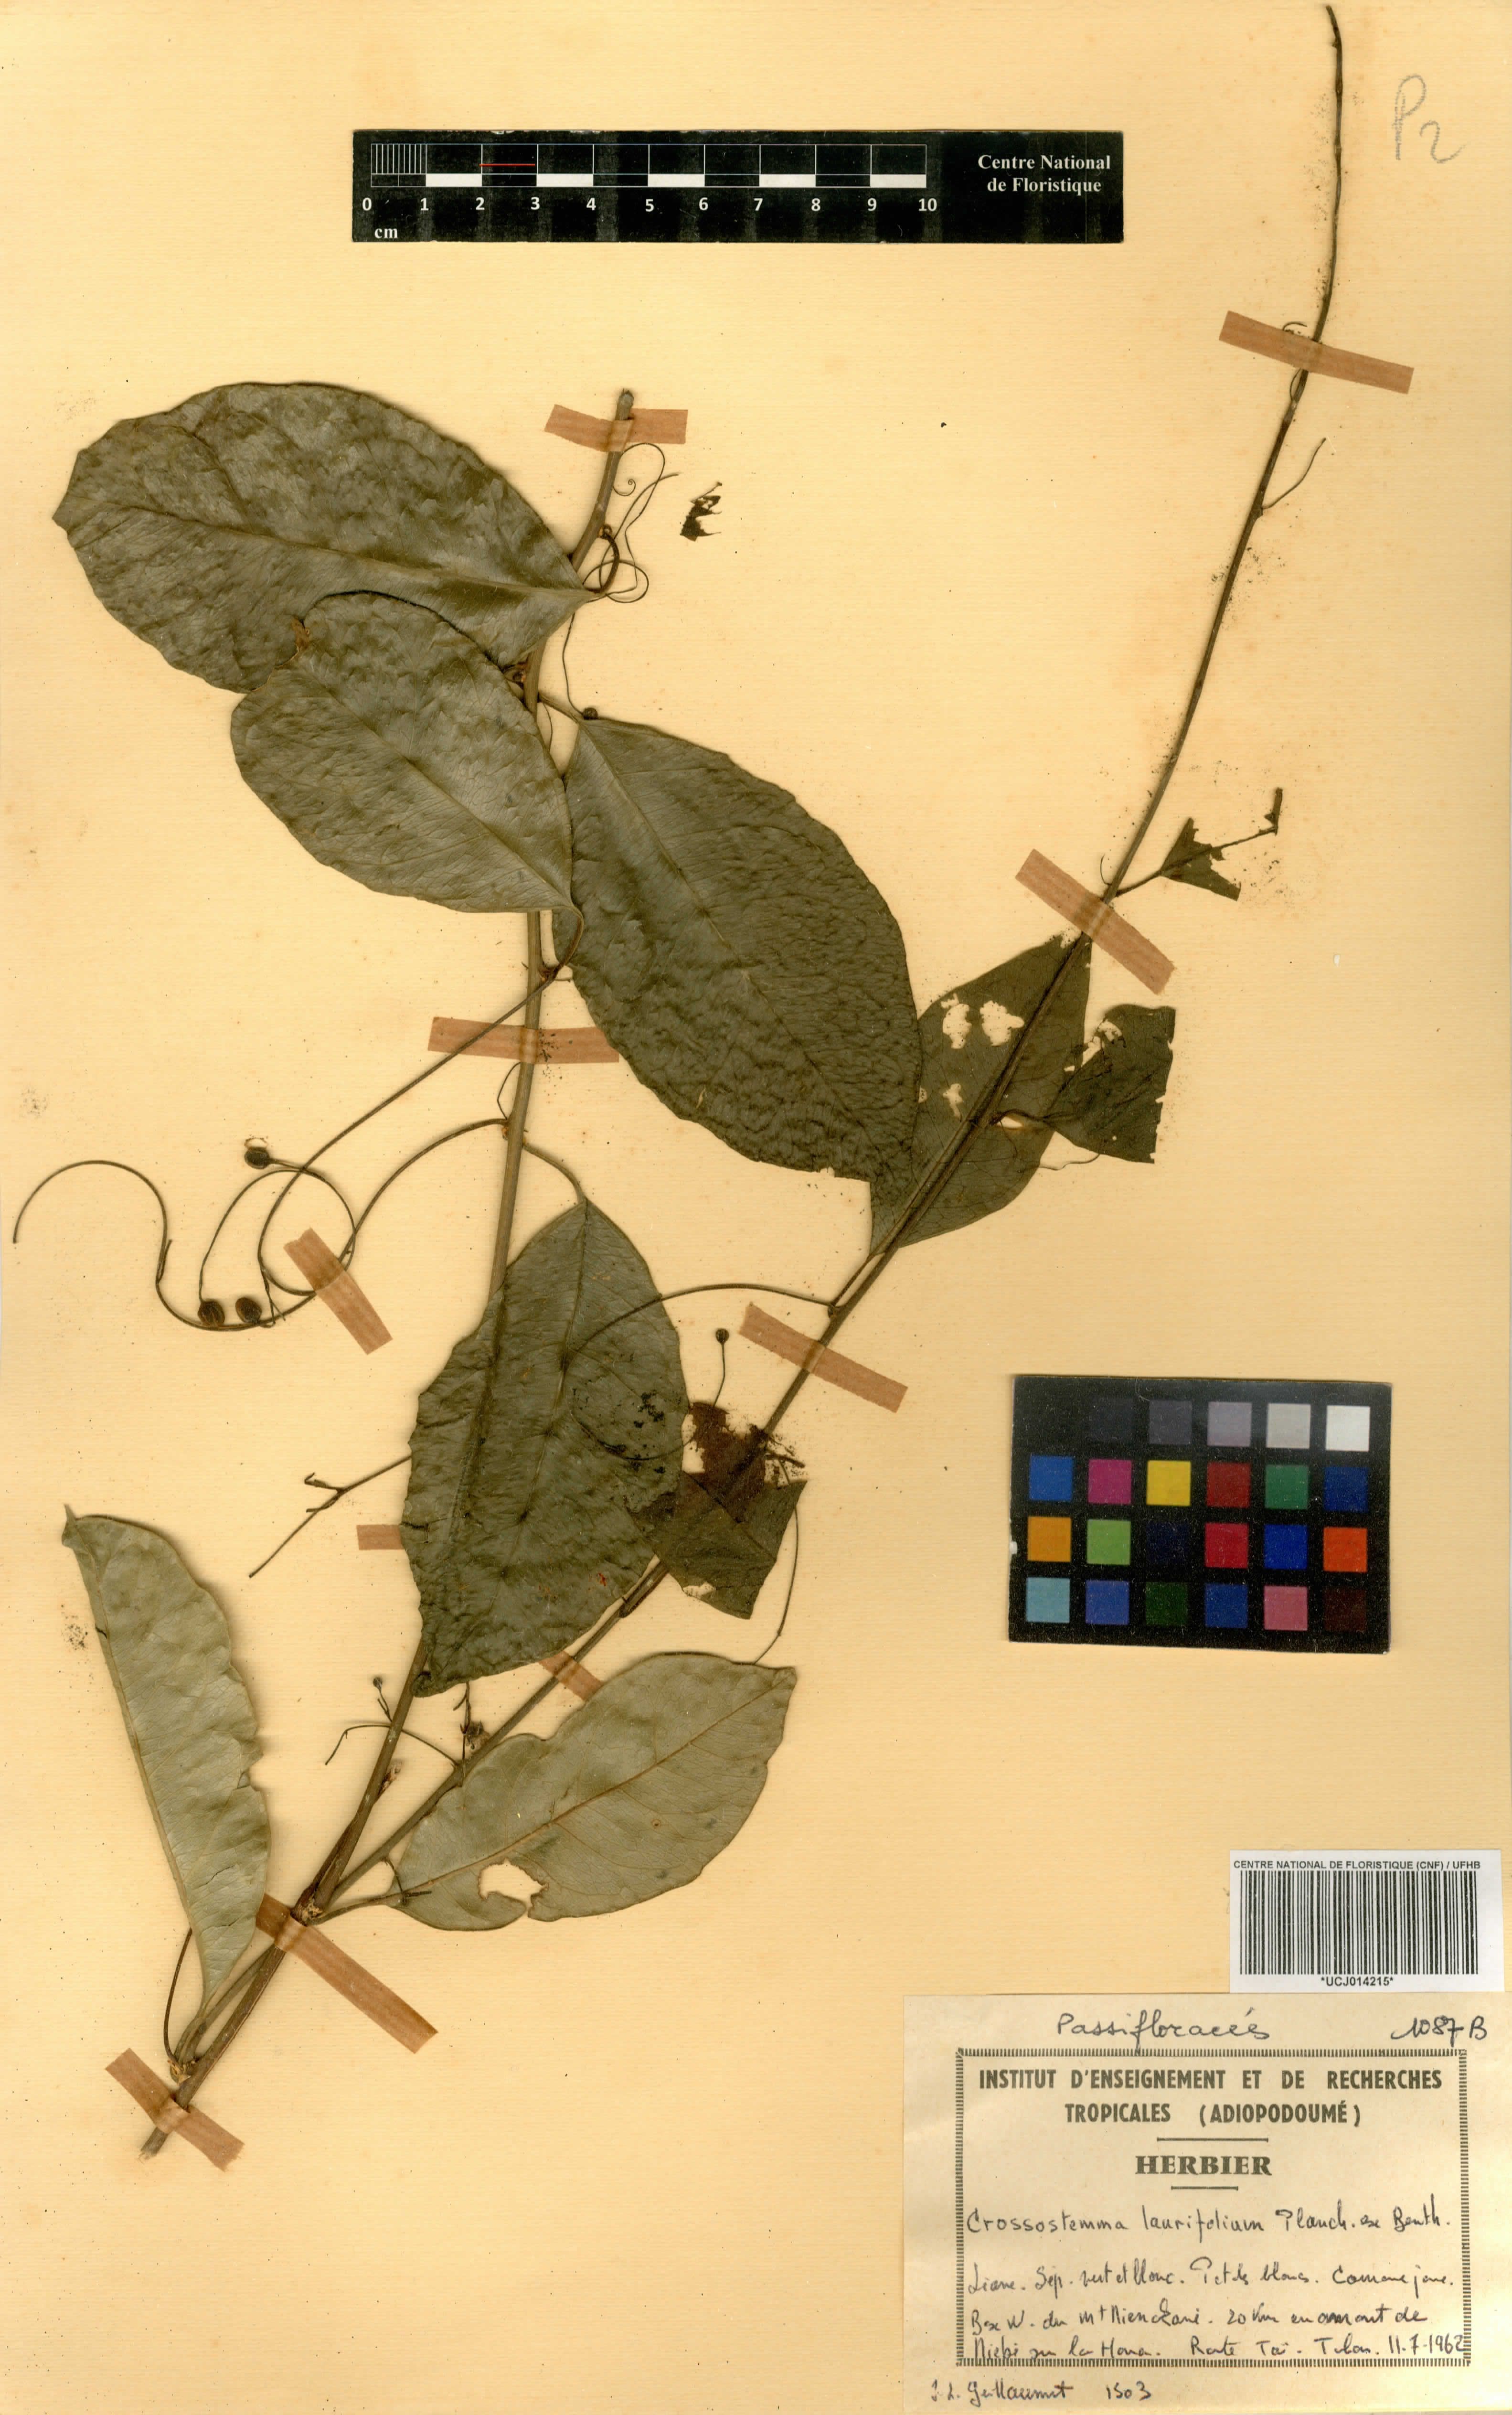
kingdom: Plantae
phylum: Tracheophyta
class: Magnoliopsida
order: Malpighiales
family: Passifloraceae
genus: Crossostemma
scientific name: Crossostemma laurifolium
